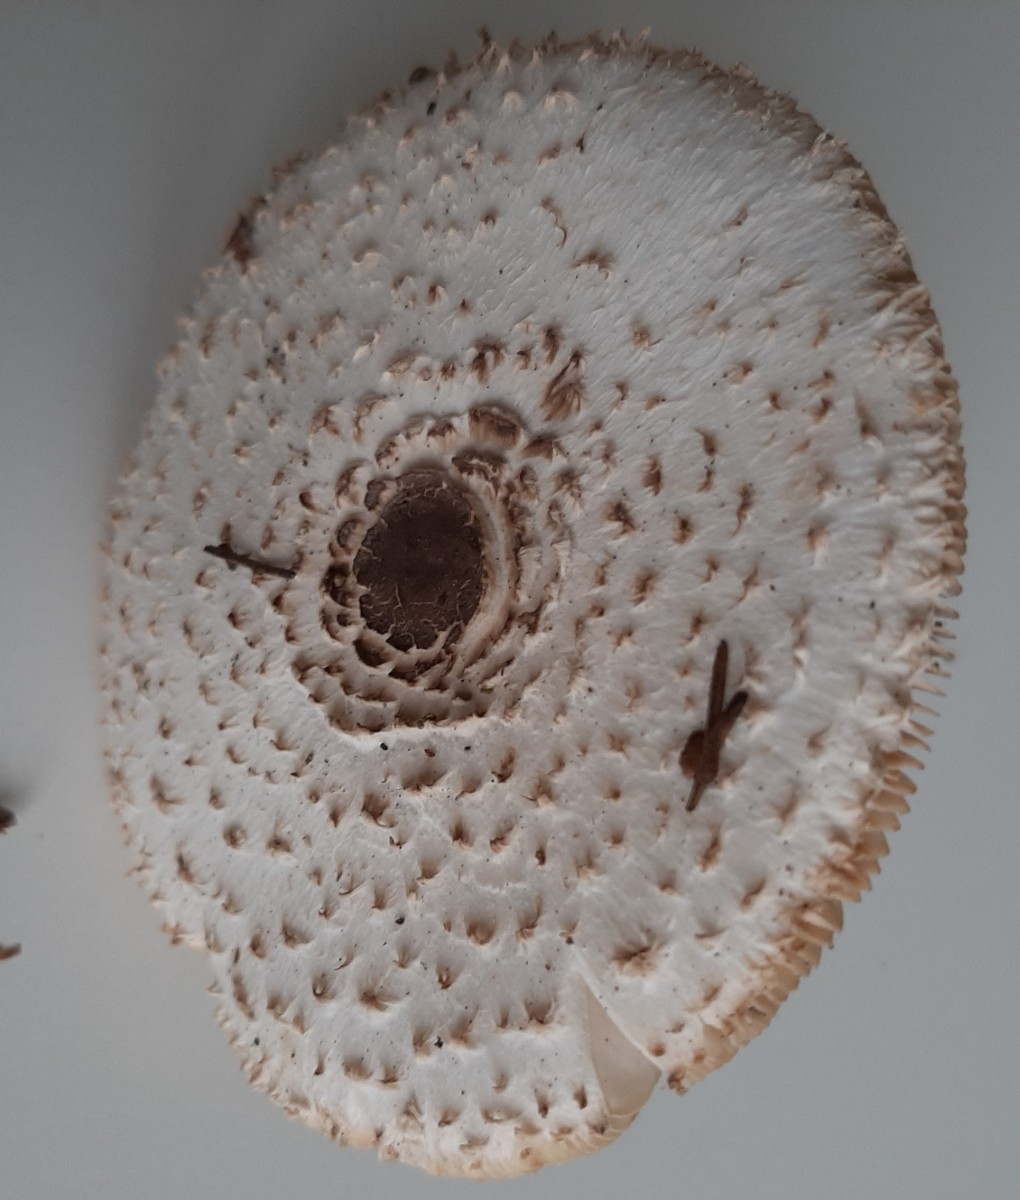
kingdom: Fungi
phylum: Basidiomycota
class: Agaricomycetes
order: Agaricales
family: Agaricaceae
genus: Leucoagaricus
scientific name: Leucoagaricus nympharum
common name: gran-silkehat
